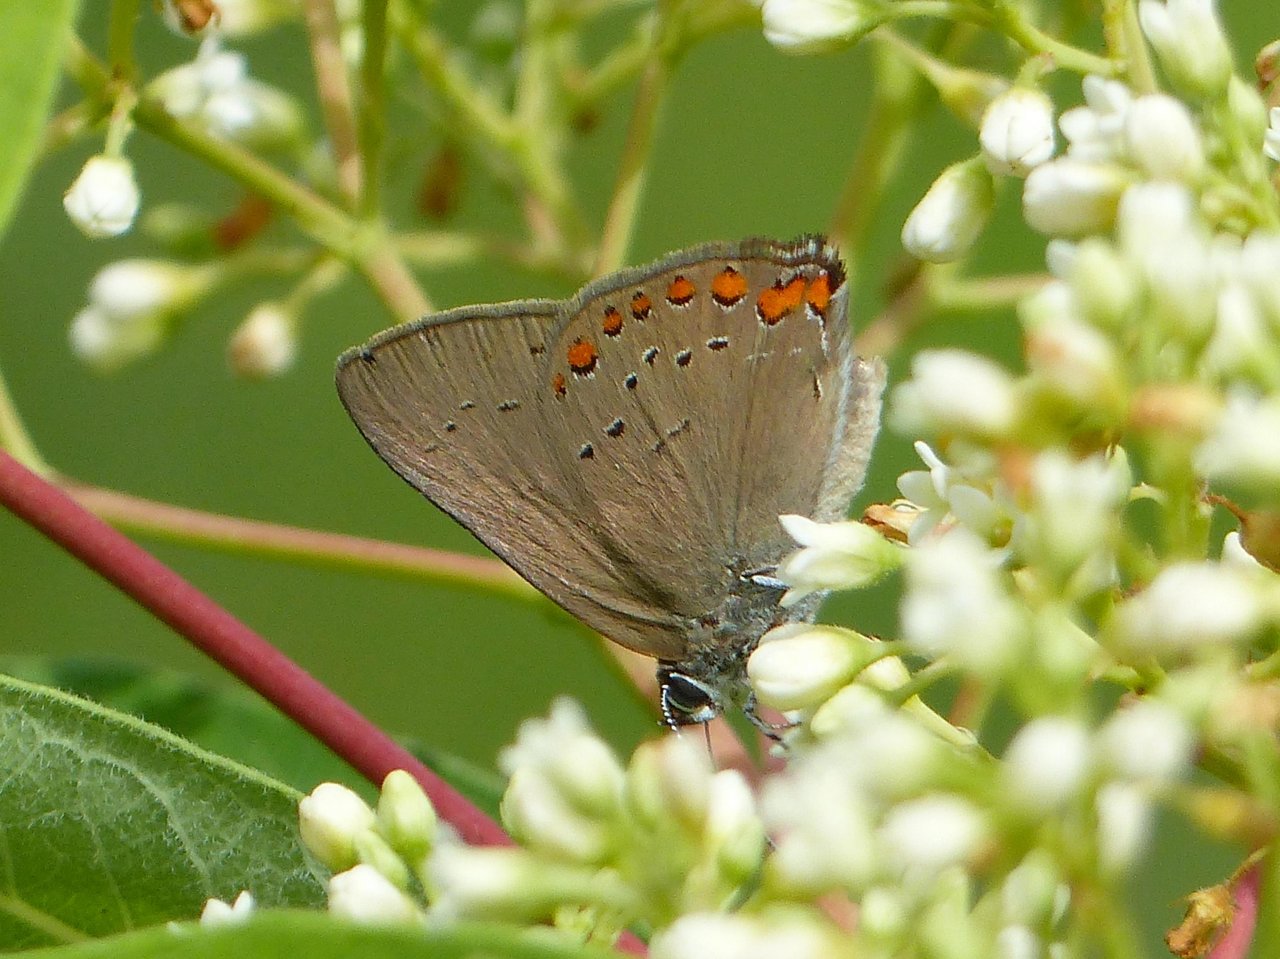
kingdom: Animalia
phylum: Arthropoda
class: Insecta
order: Lepidoptera
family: Lycaenidae
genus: Harkenclenus
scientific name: Harkenclenus titus
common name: Coral Hairstreak
